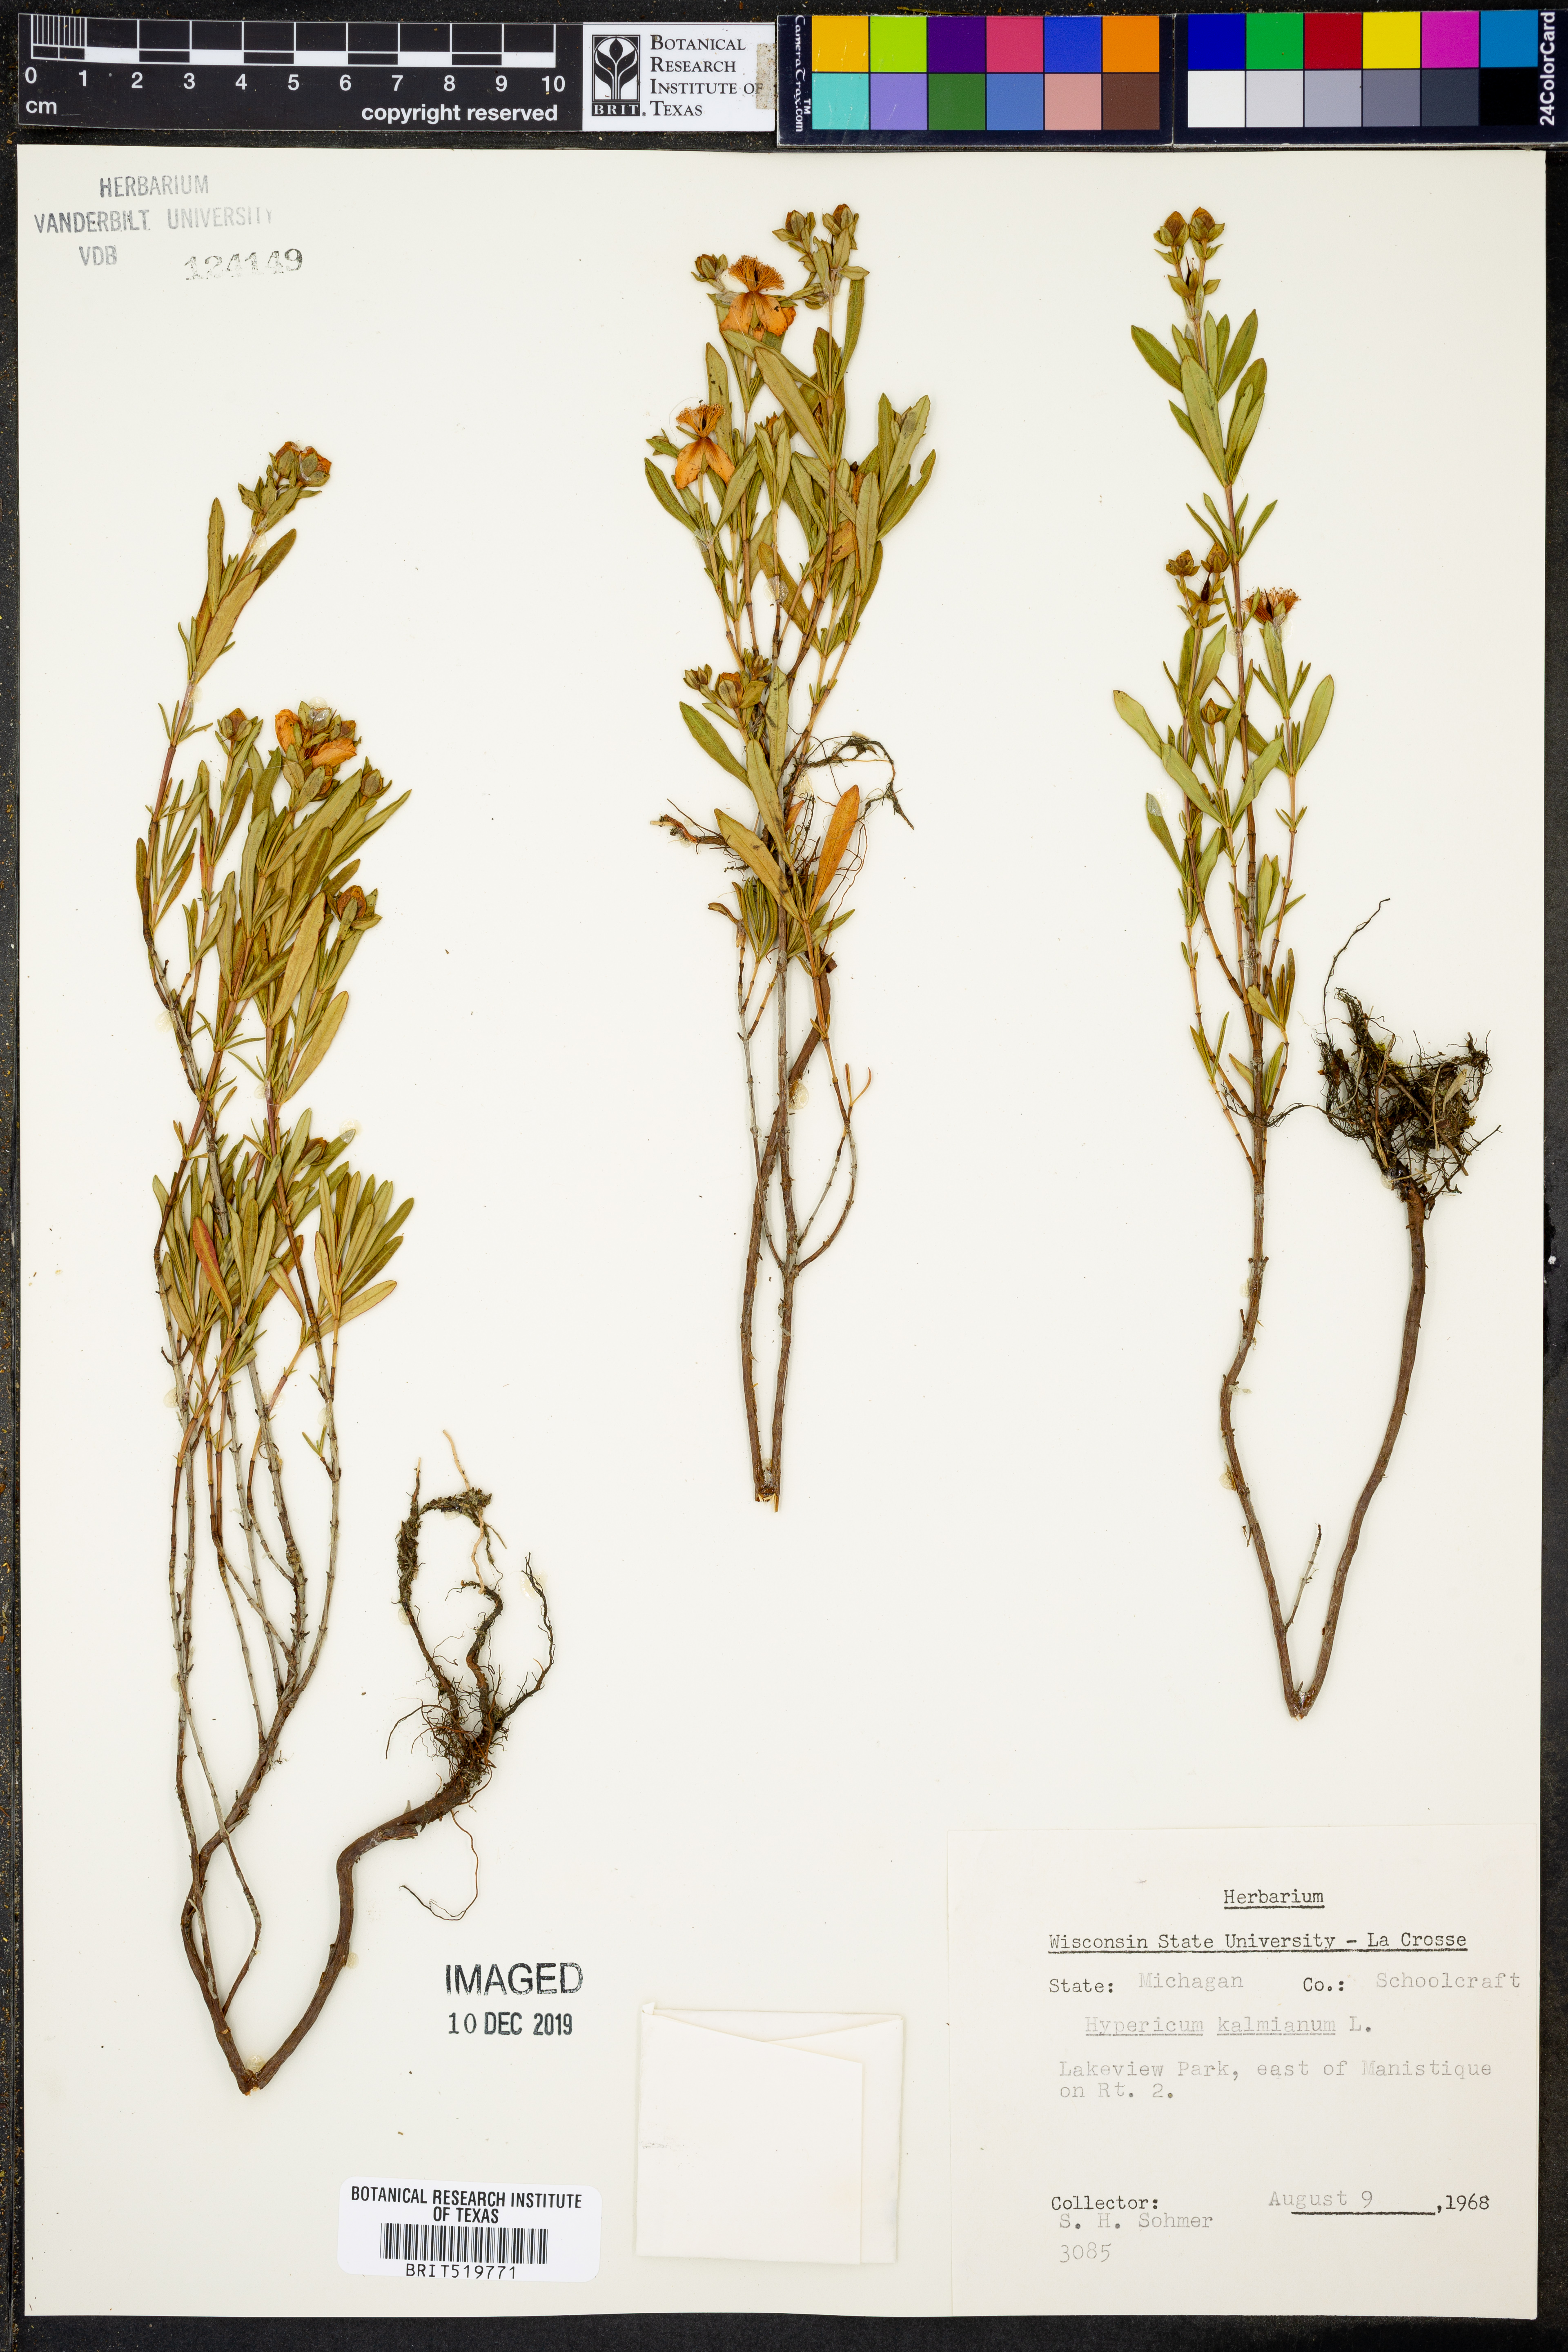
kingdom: Plantae
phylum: Tracheophyta
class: Magnoliopsida
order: Malpighiales
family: Hypericaceae
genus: Hypericum
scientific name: Hypericum kalmianum
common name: Kalm's st. john's-wort
